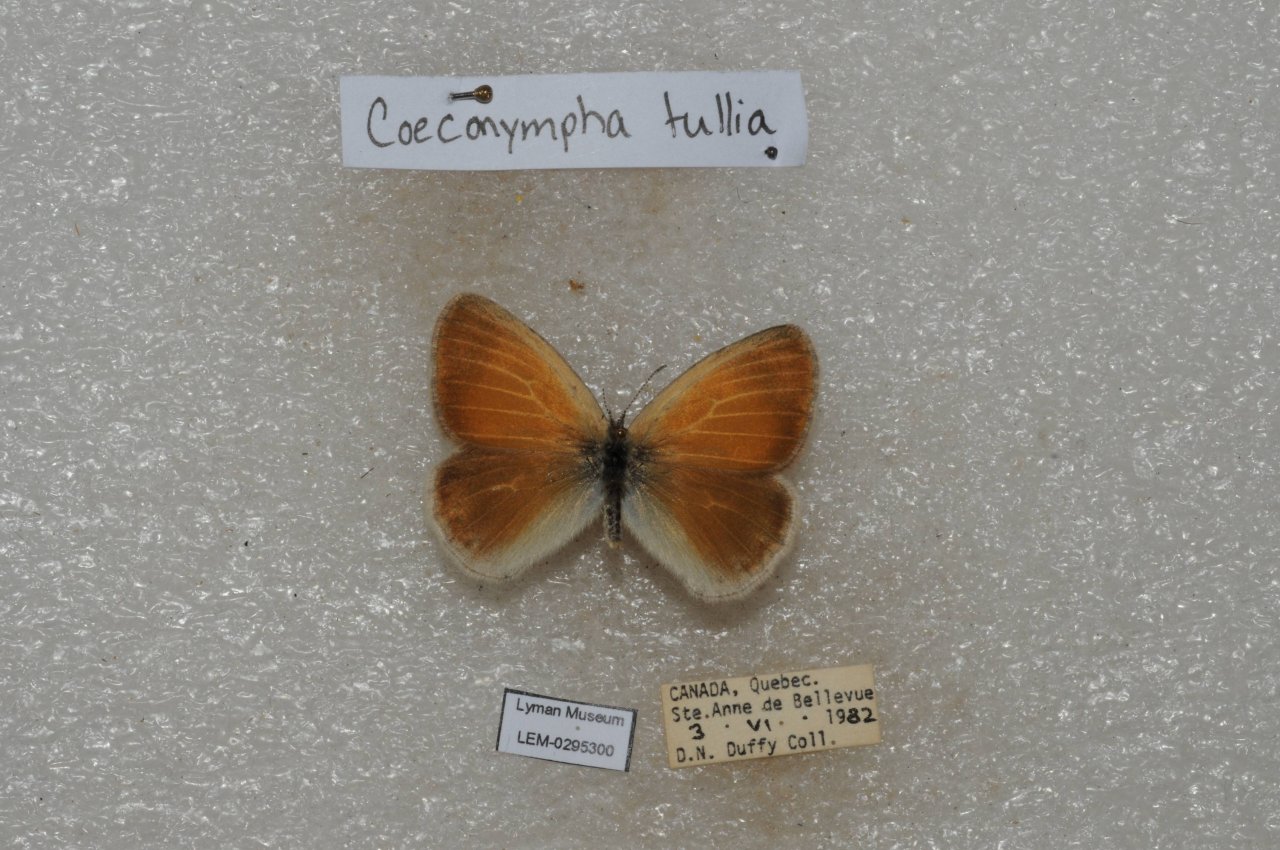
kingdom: Animalia
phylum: Arthropoda
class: Insecta
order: Lepidoptera
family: Nymphalidae
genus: Coenonympha
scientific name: Coenonympha tullia
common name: Large Heath
